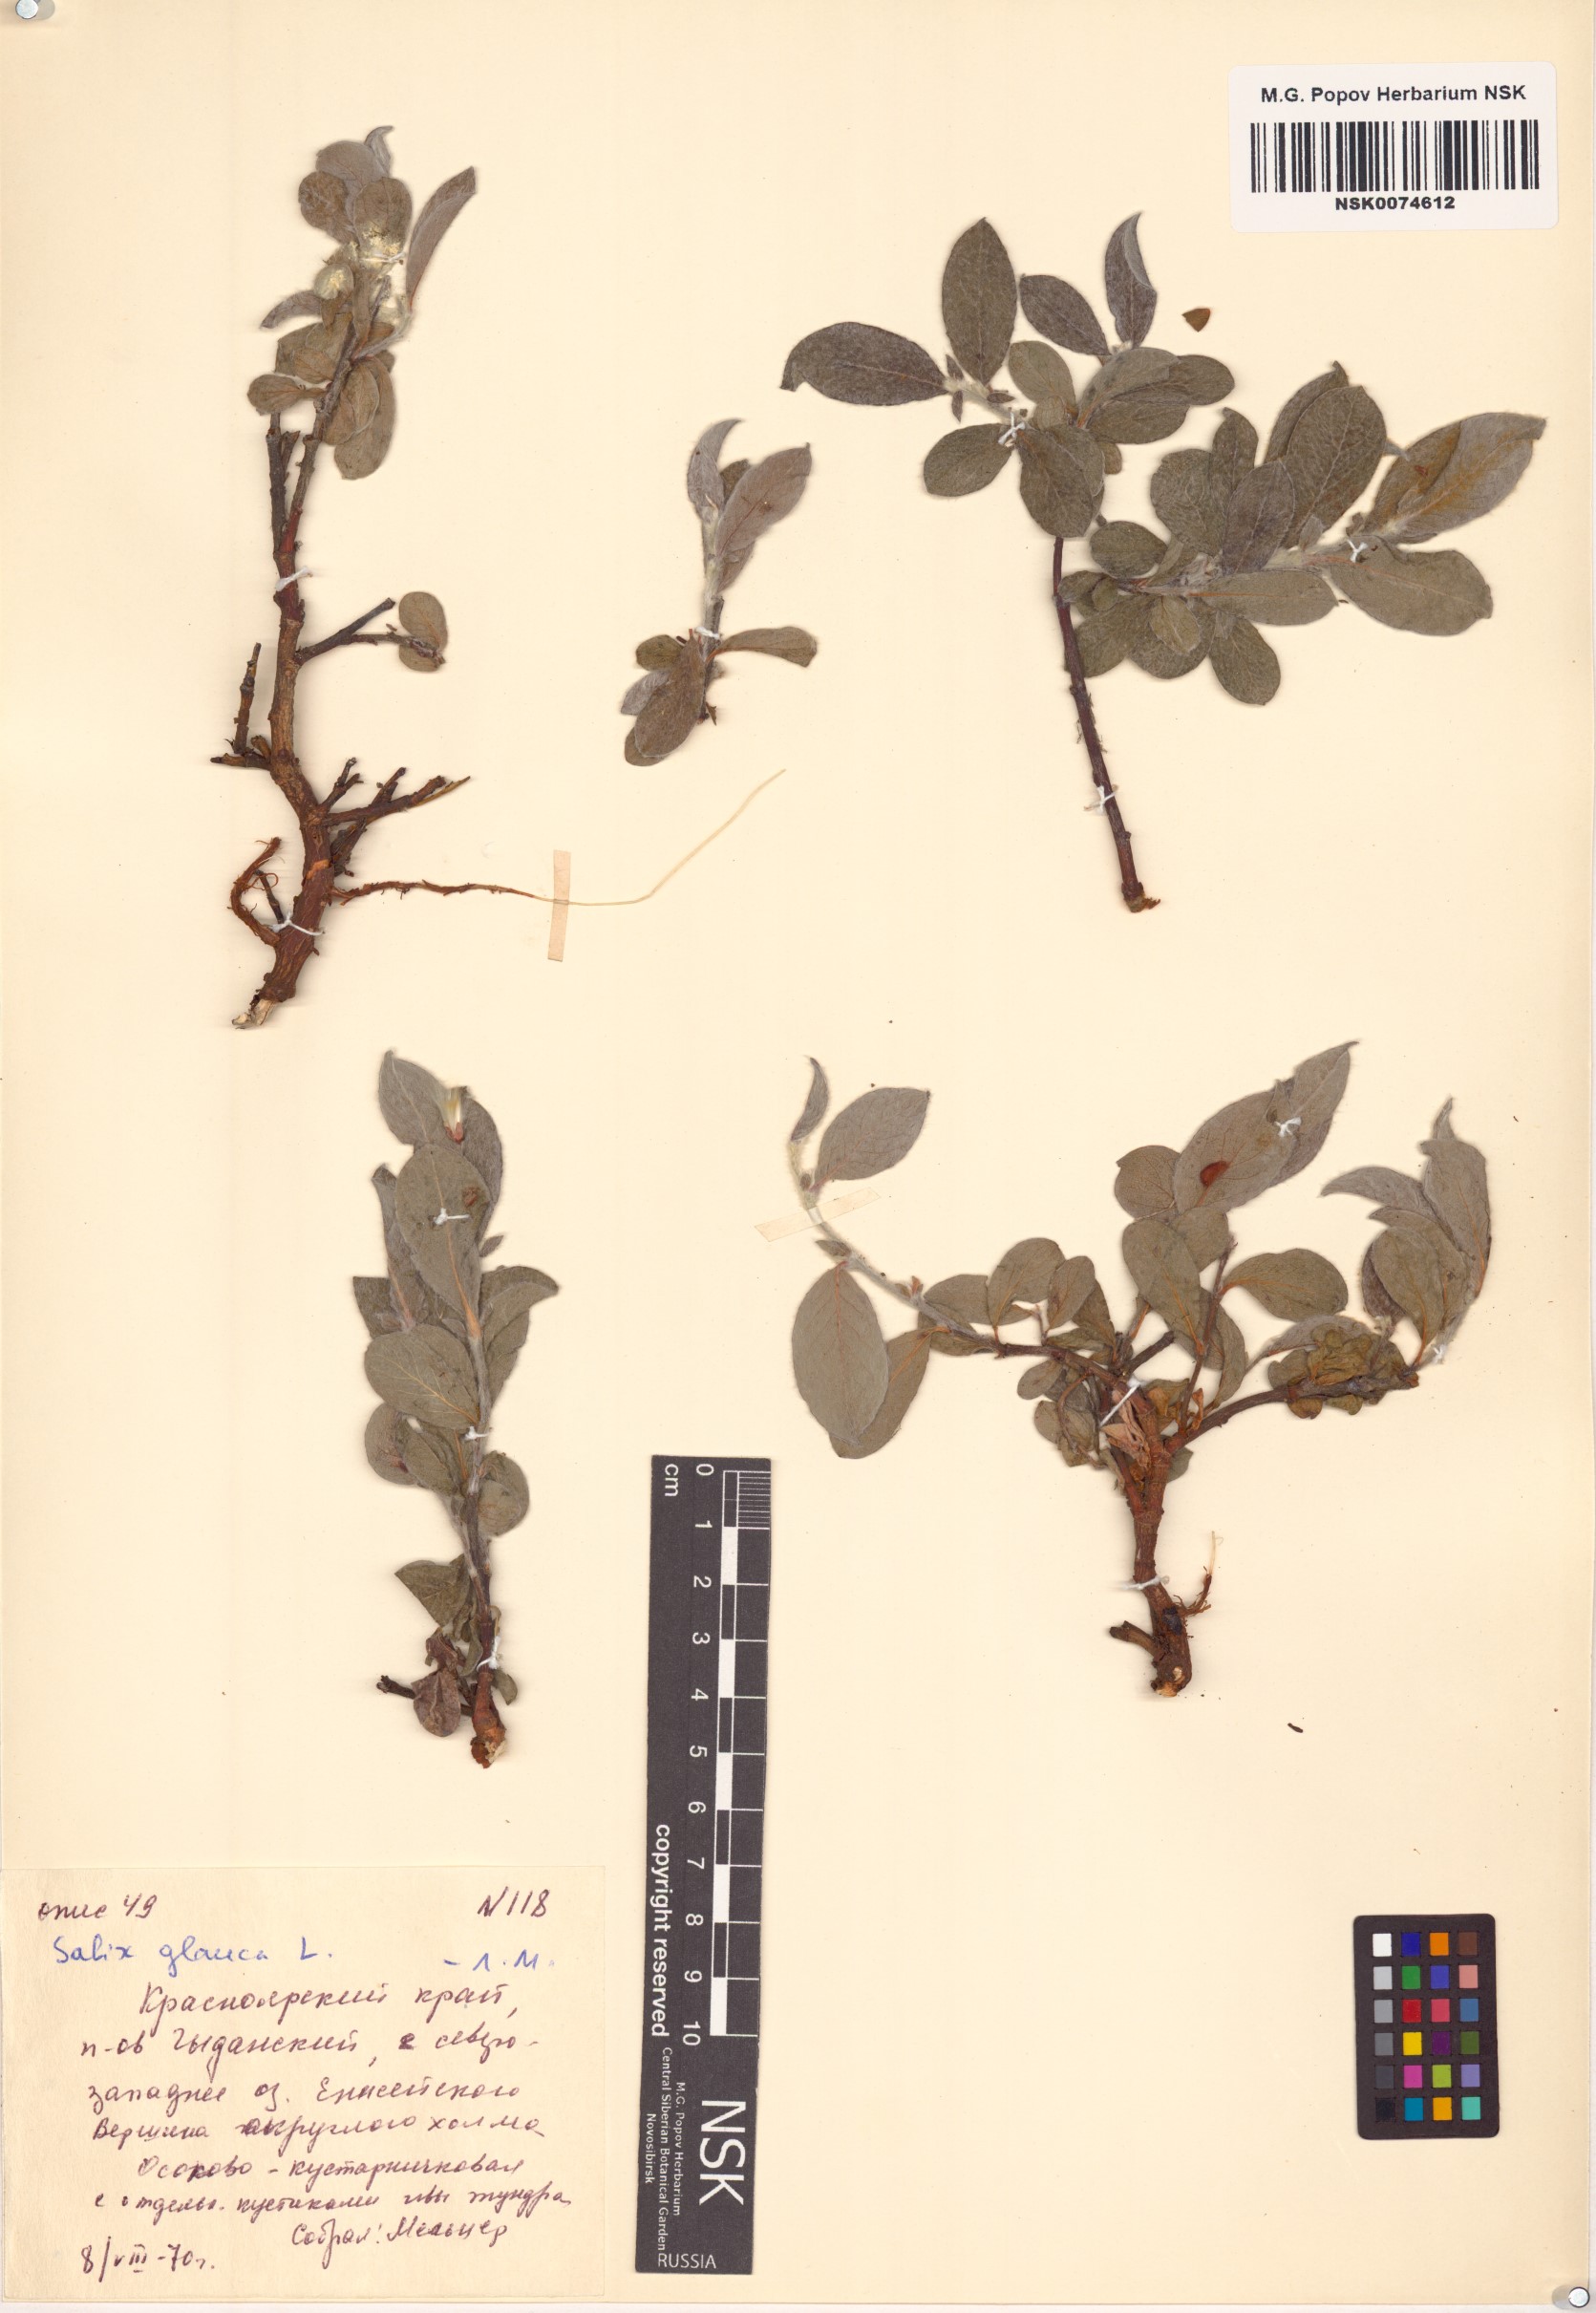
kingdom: Plantae
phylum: Tracheophyta
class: Magnoliopsida
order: Malpighiales
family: Salicaceae
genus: Salix
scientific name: Salix glauca
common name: Glaucous willow
